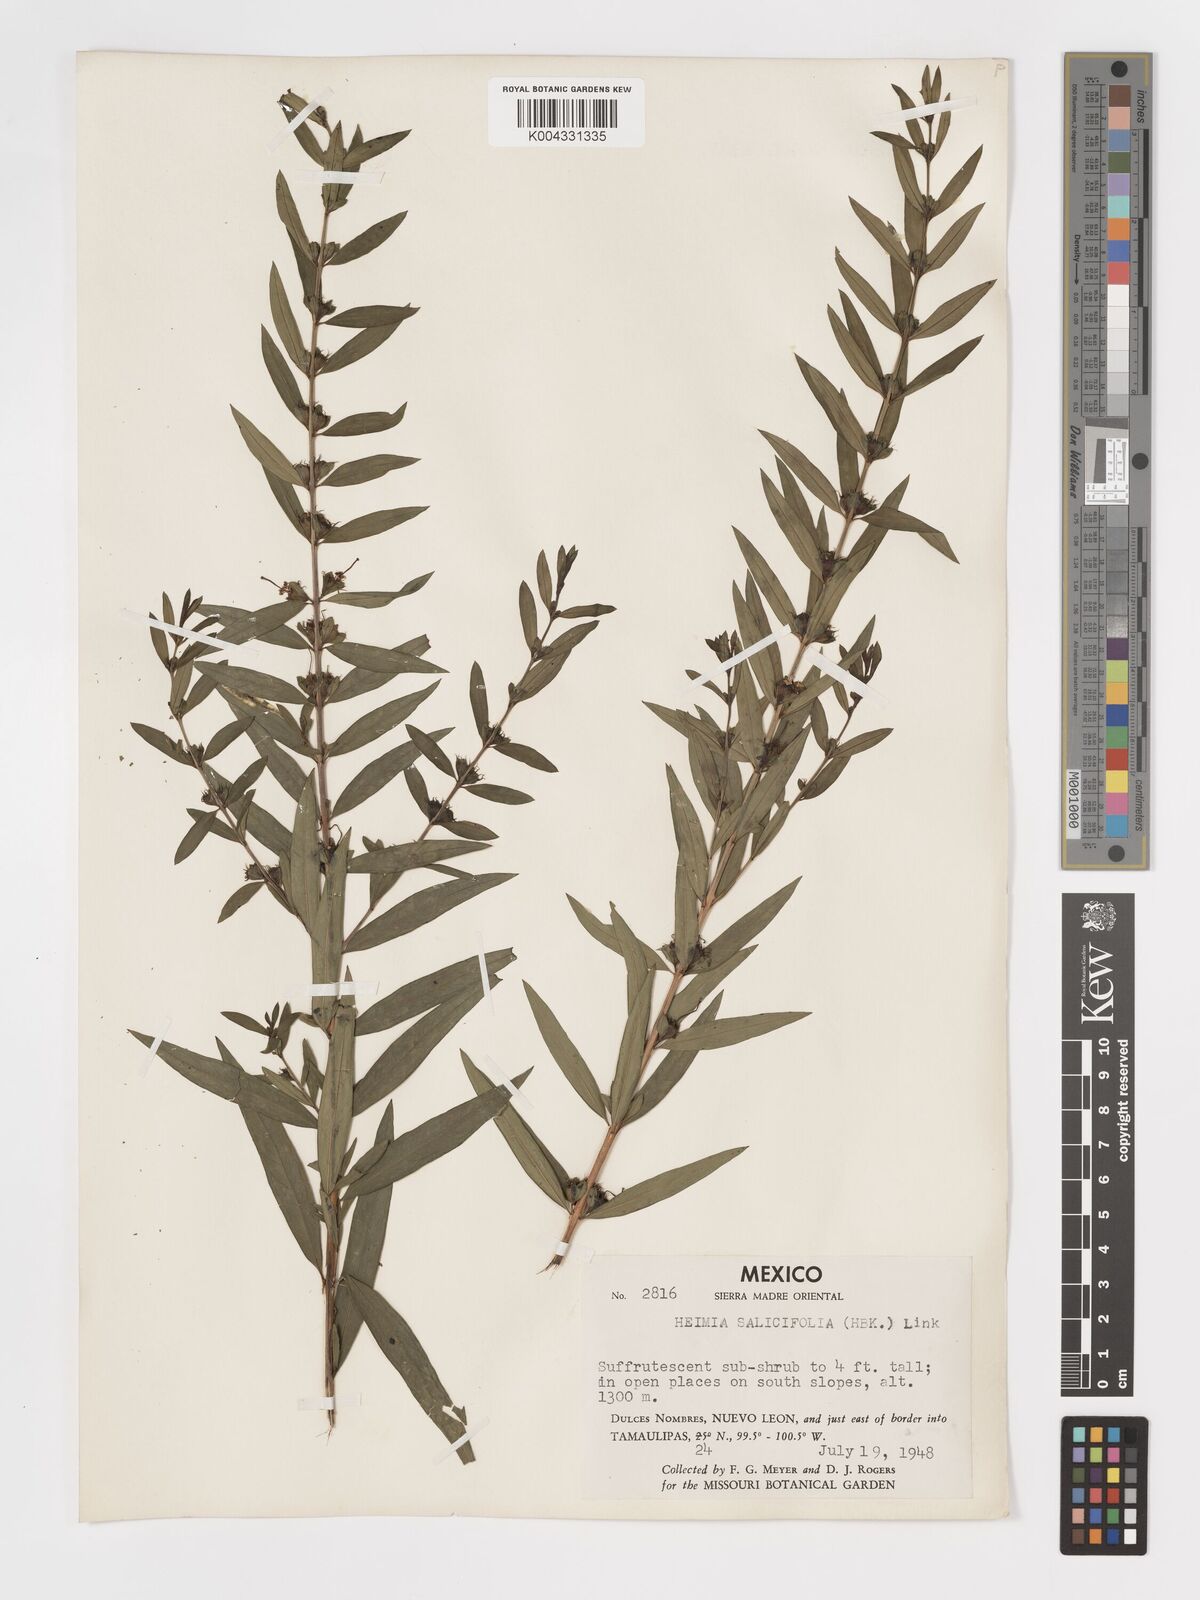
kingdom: Plantae
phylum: Tracheophyta
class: Magnoliopsida
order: Myrtales
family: Lythraceae
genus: Heimia
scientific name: Heimia salicifolia
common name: Willow-leaf heimia
